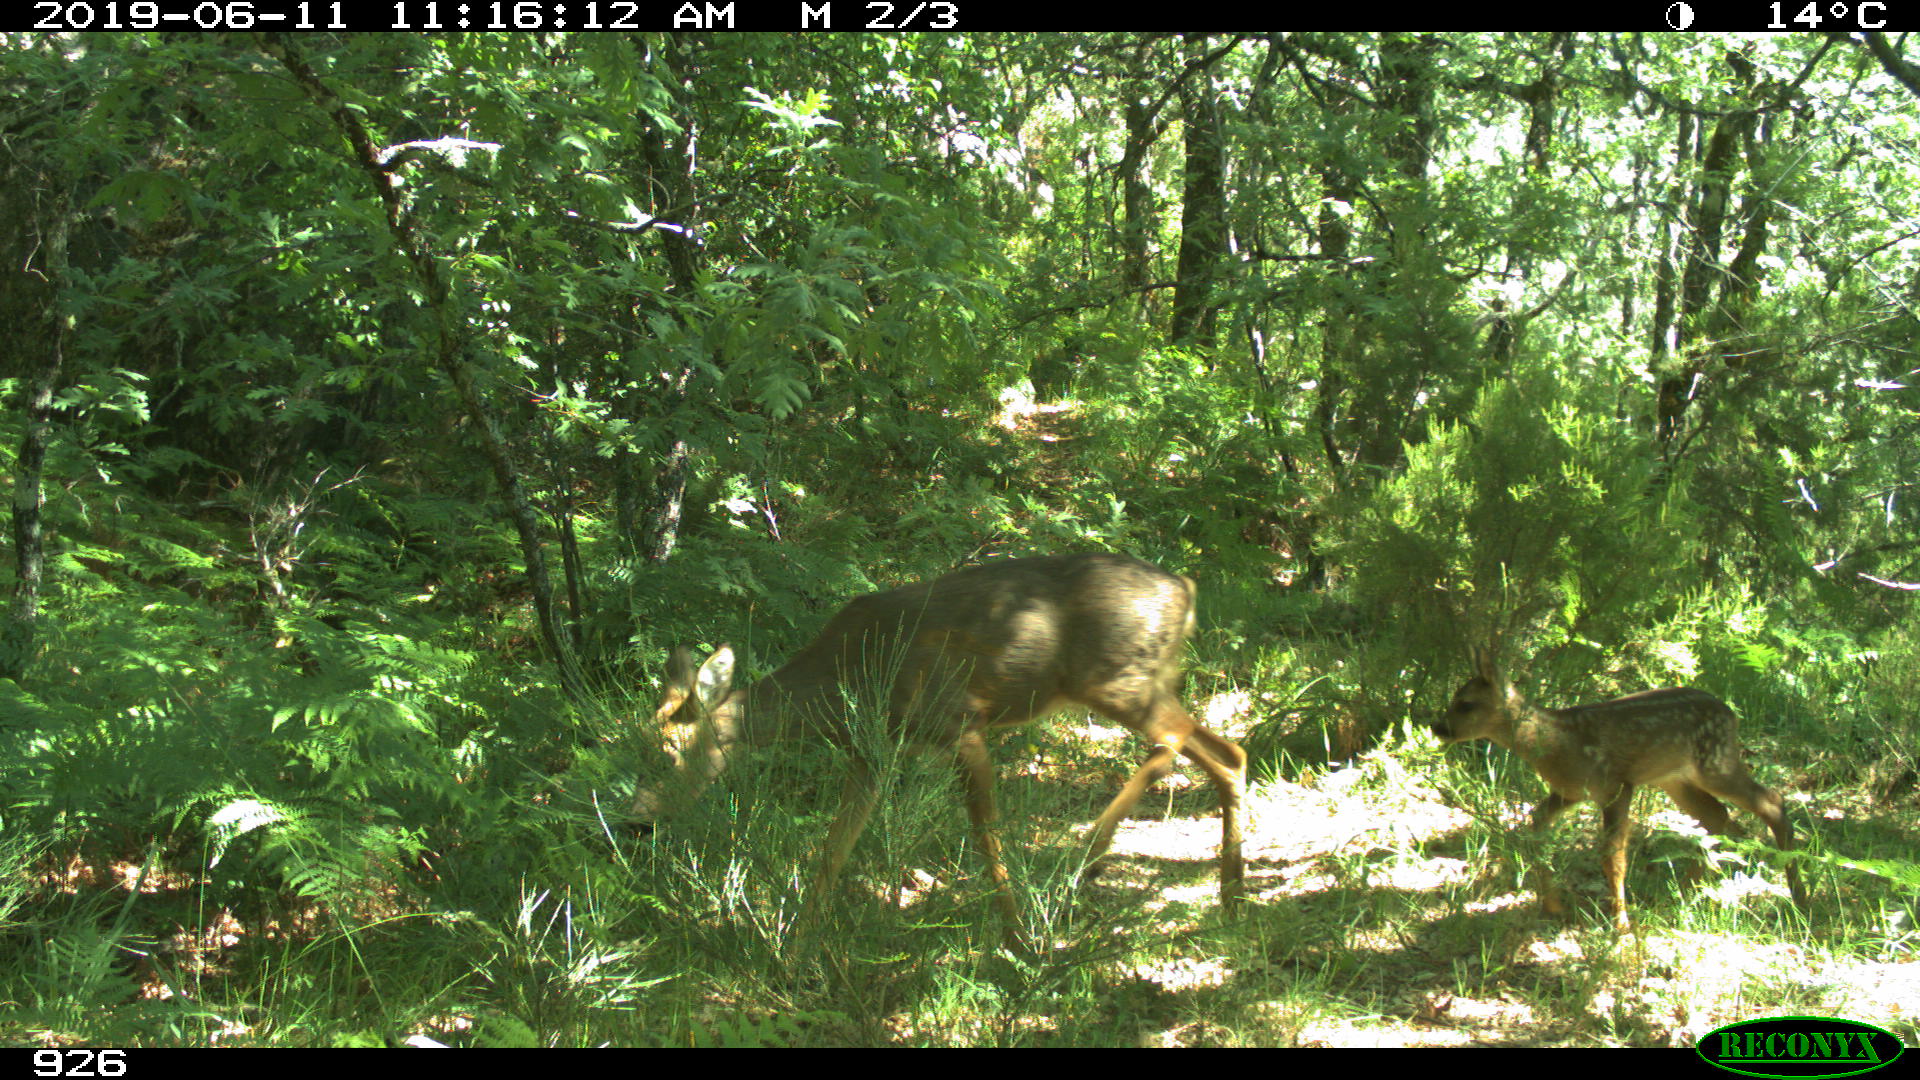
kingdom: Animalia
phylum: Chordata
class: Mammalia
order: Artiodactyla
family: Cervidae
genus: Capreolus
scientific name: Capreolus capreolus
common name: Western roe deer
